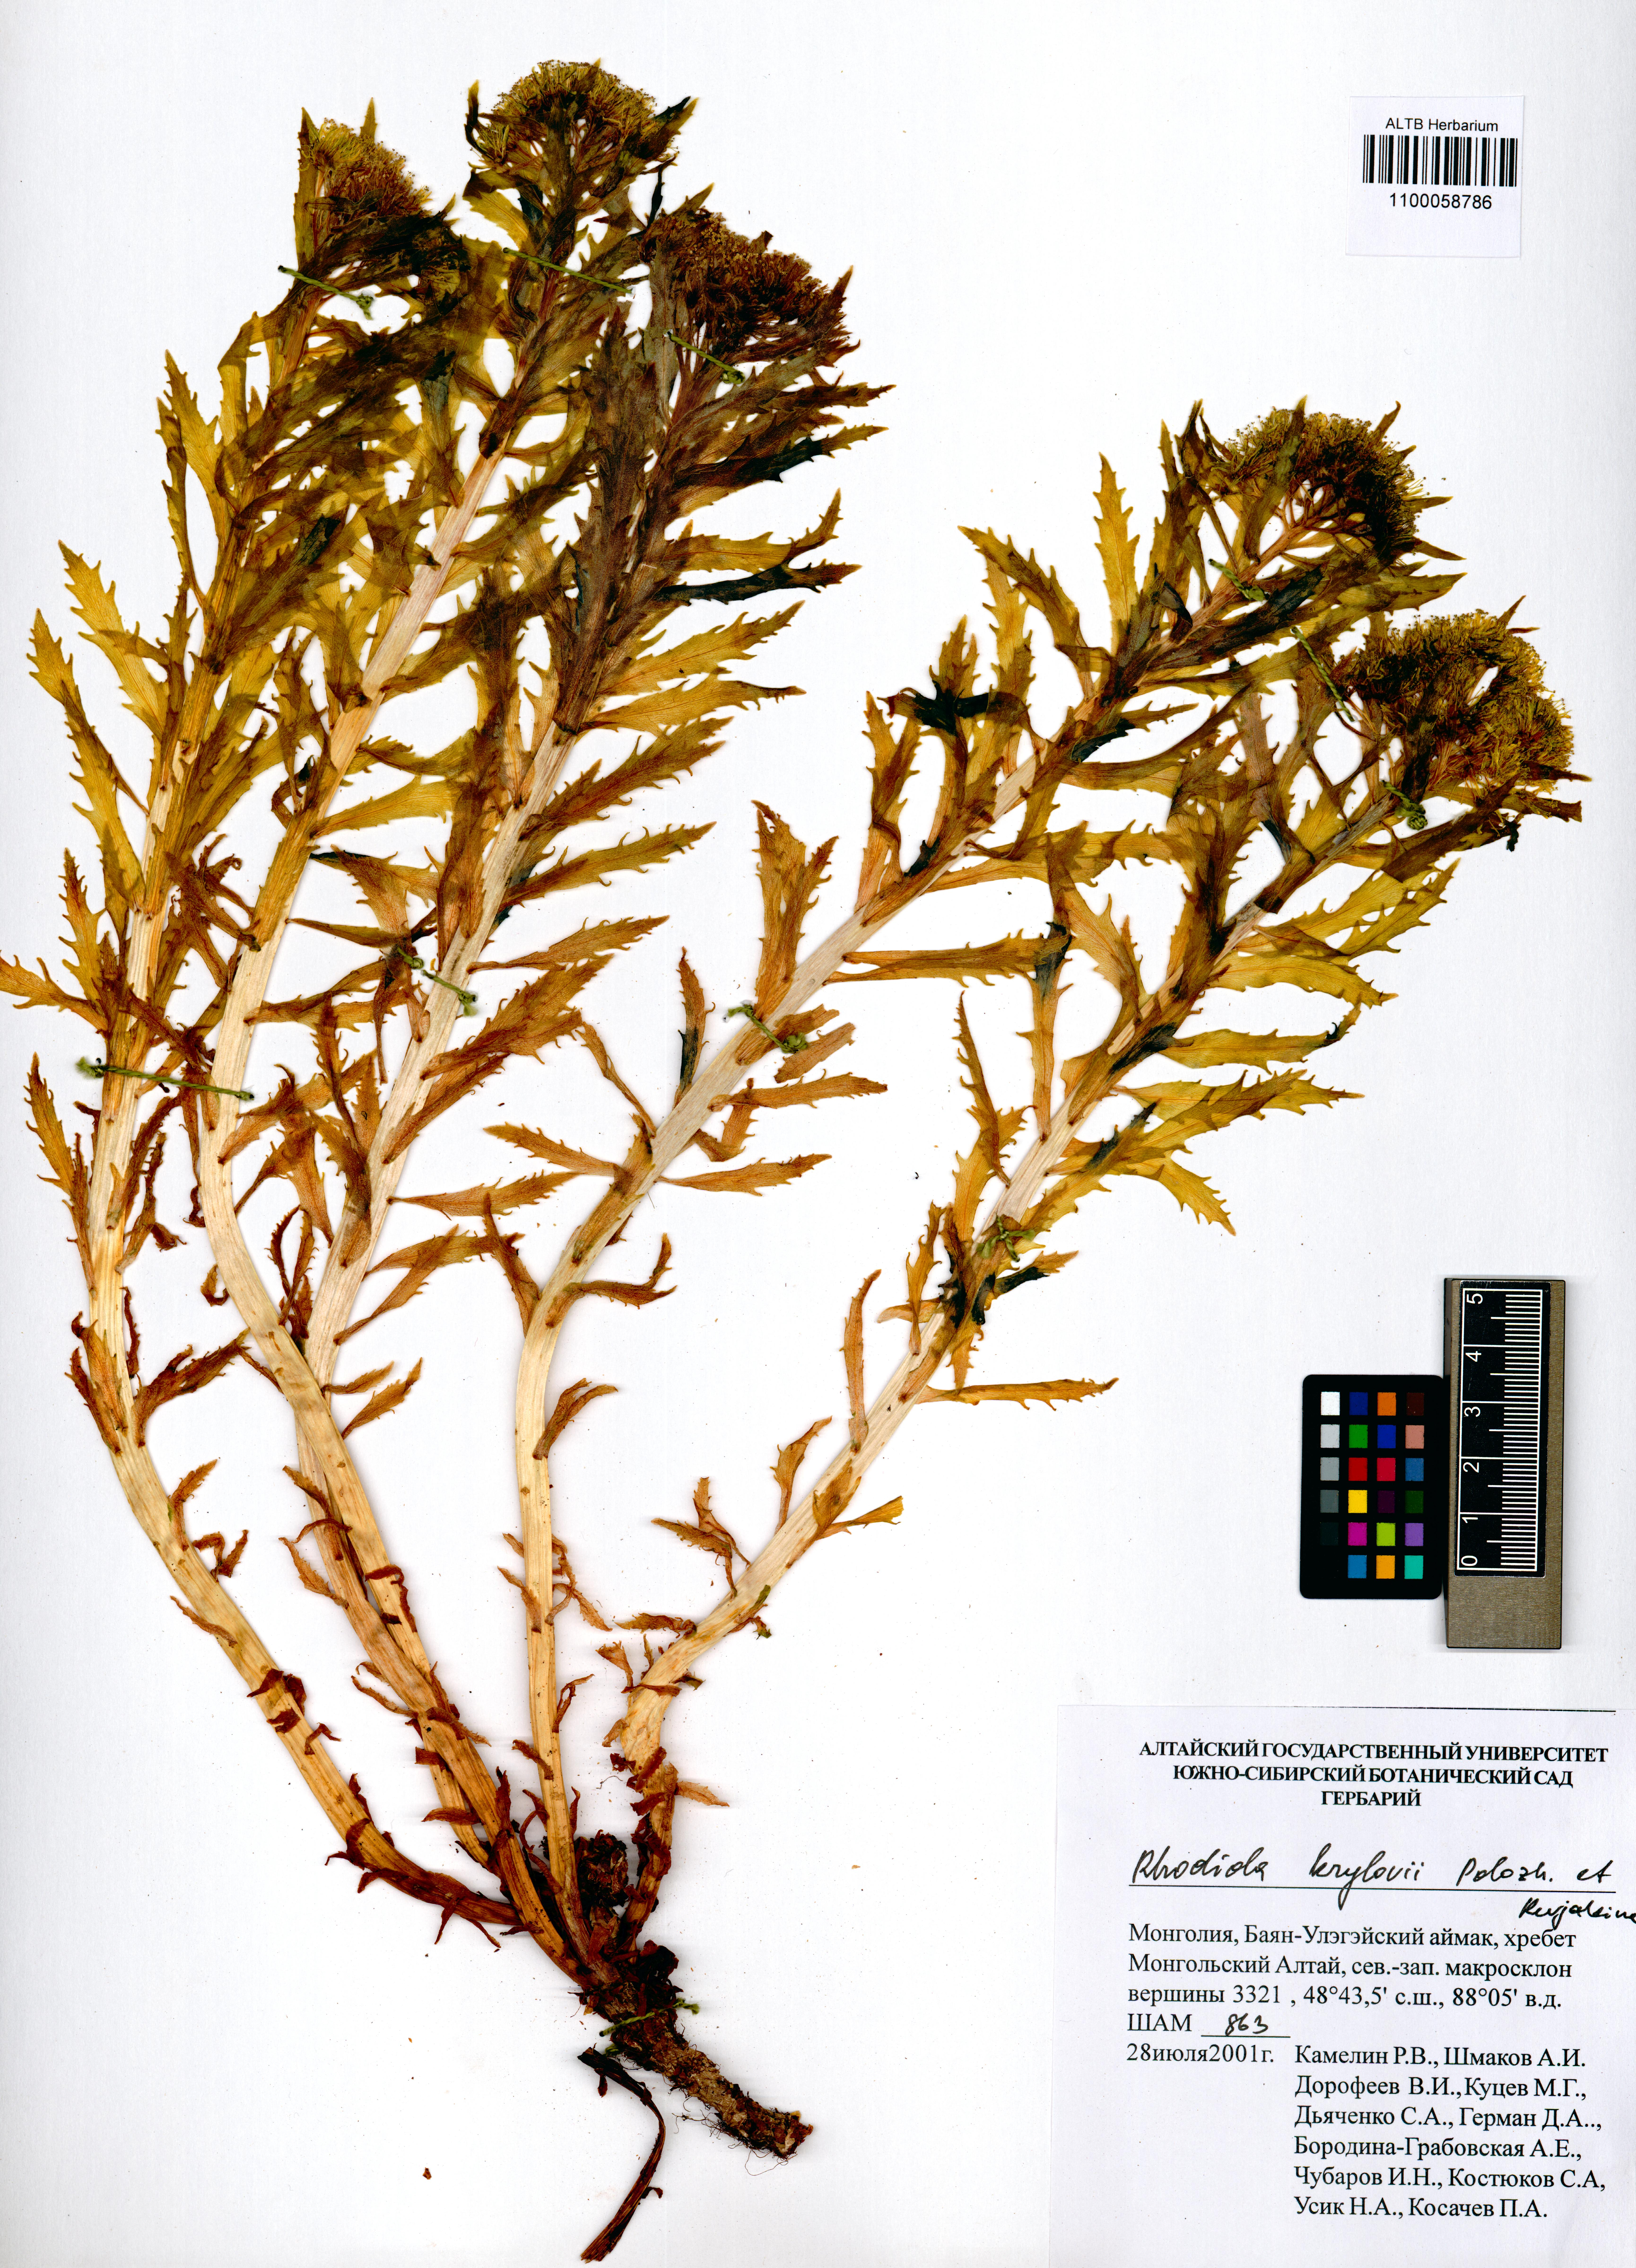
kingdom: Plantae
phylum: Tracheophyta
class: Magnoliopsida
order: Saxifragales
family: Crassulaceae
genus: Rhodiola
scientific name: Rhodiola stephani
